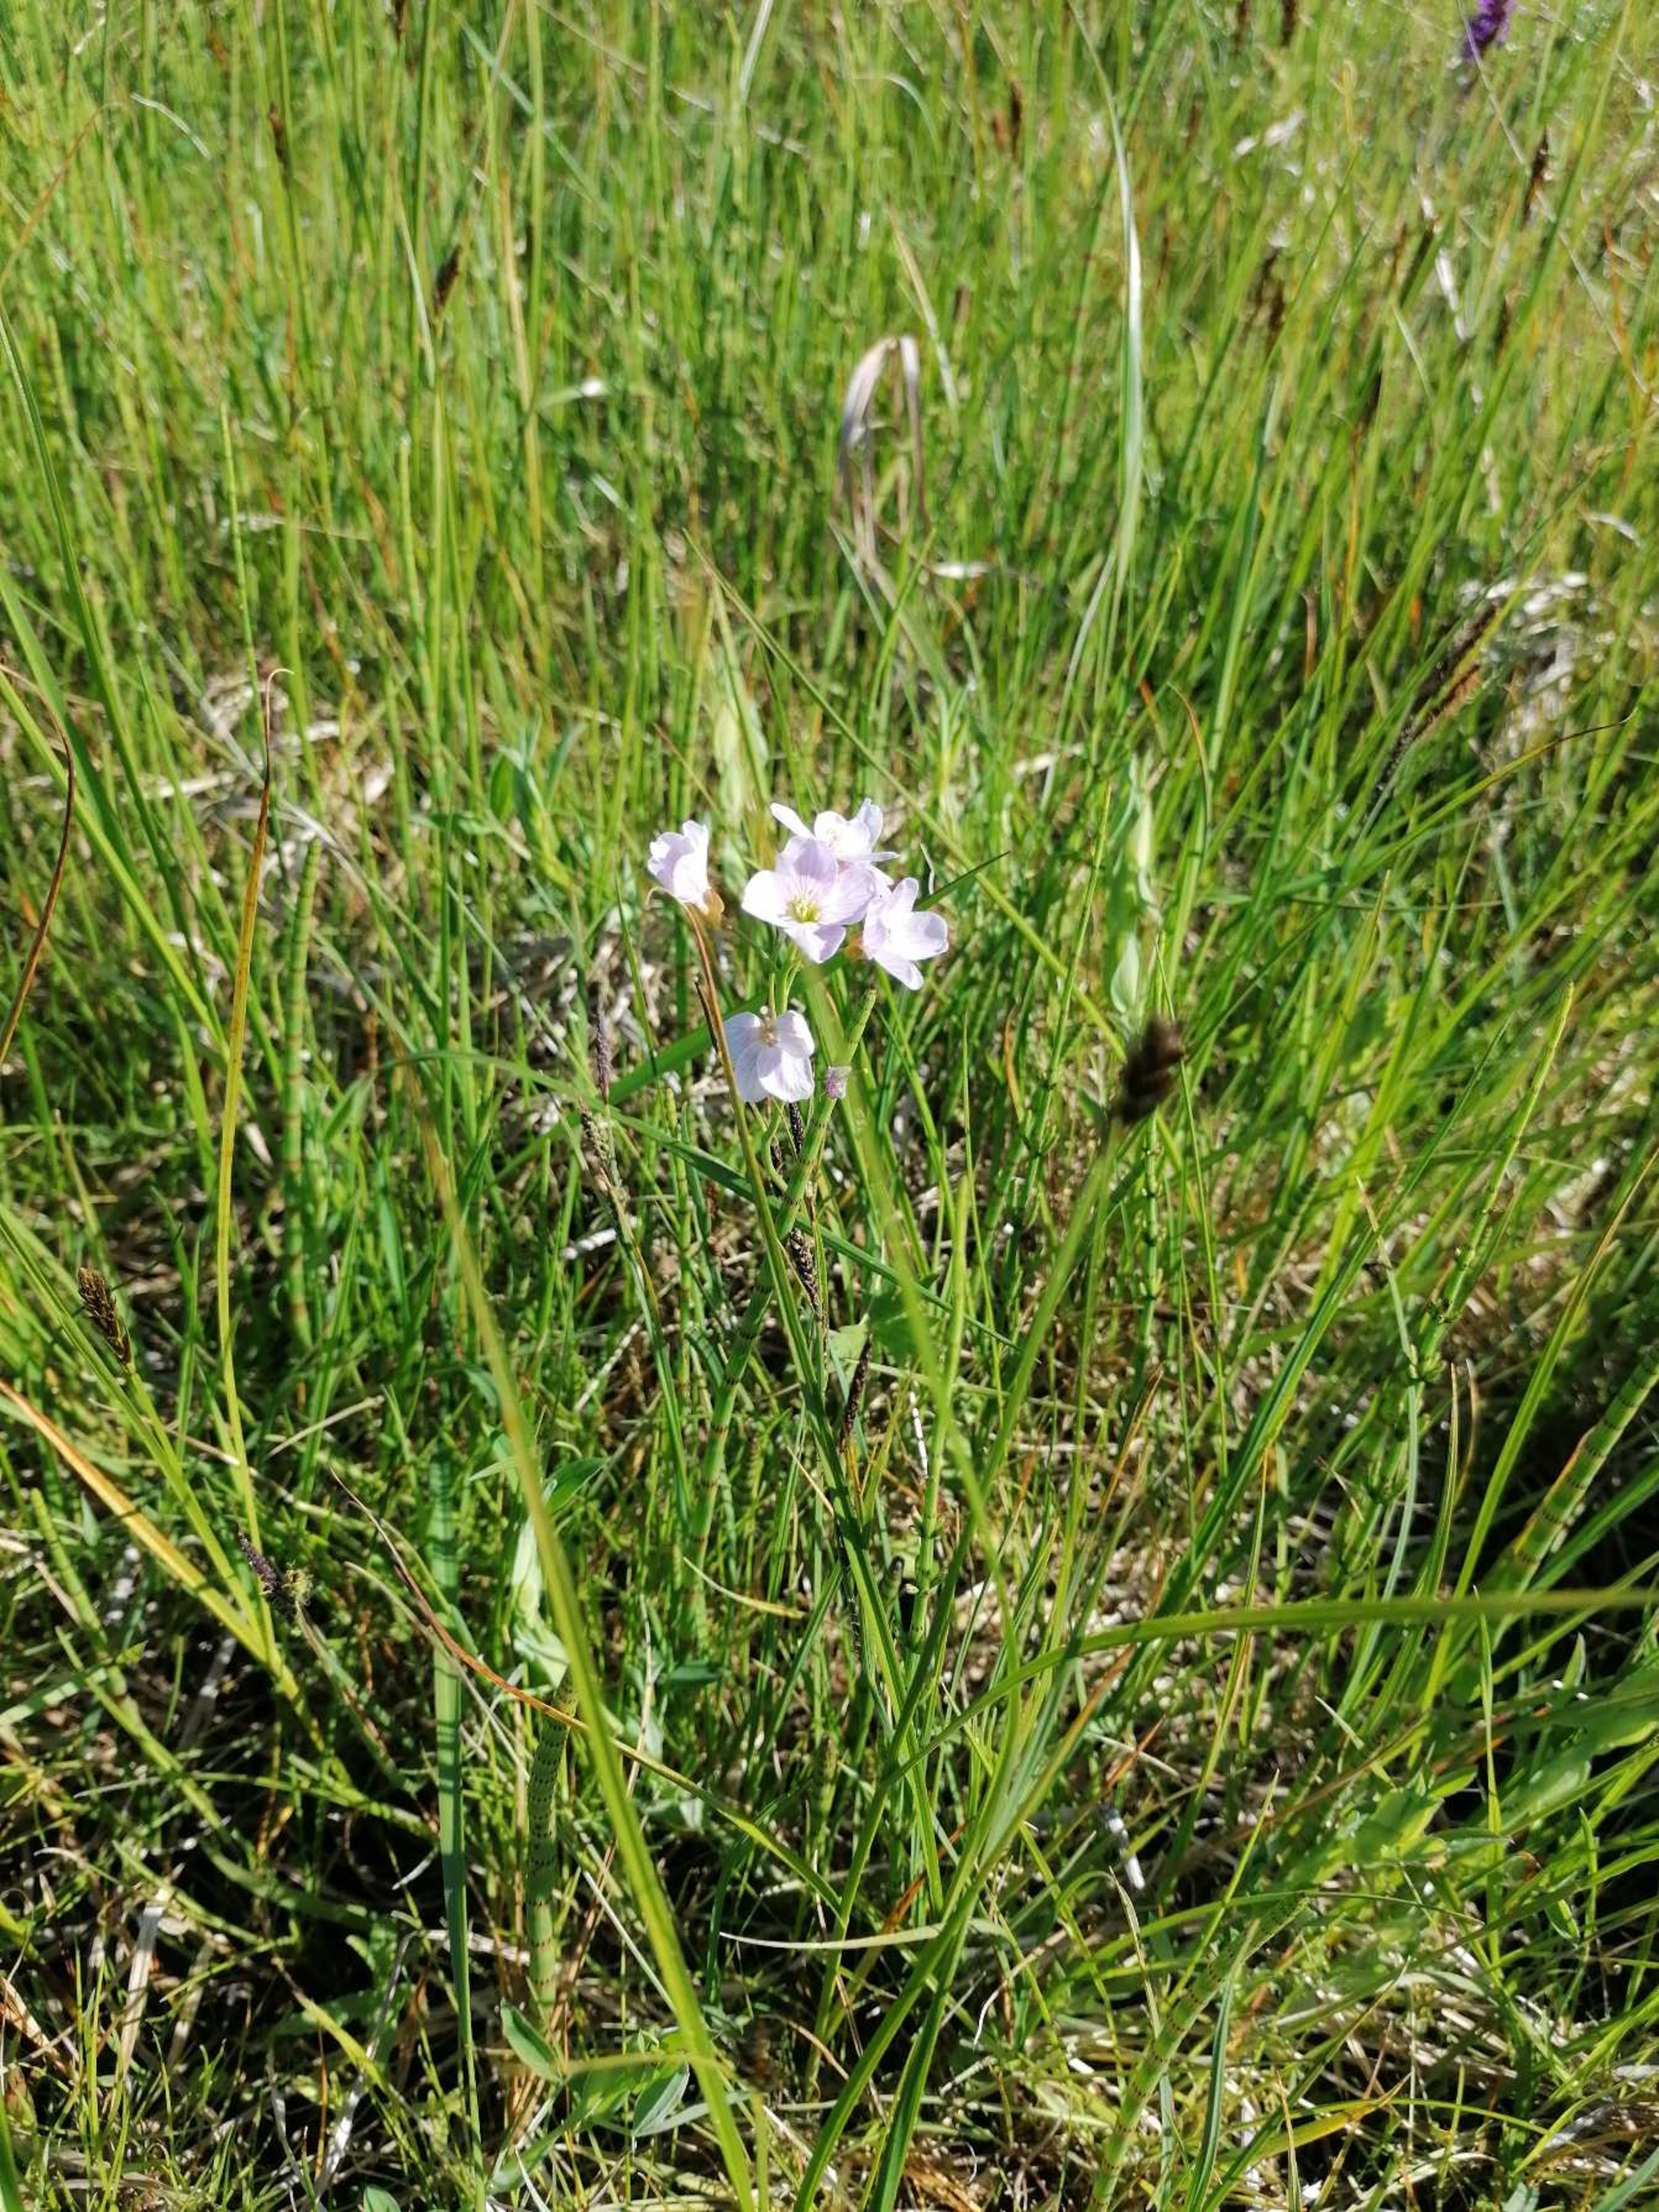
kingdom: Plantae
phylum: Tracheophyta
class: Magnoliopsida
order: Brassicales
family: Brassicaceae
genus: Cardamine
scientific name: Cardamine pratensis
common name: Engkarse
